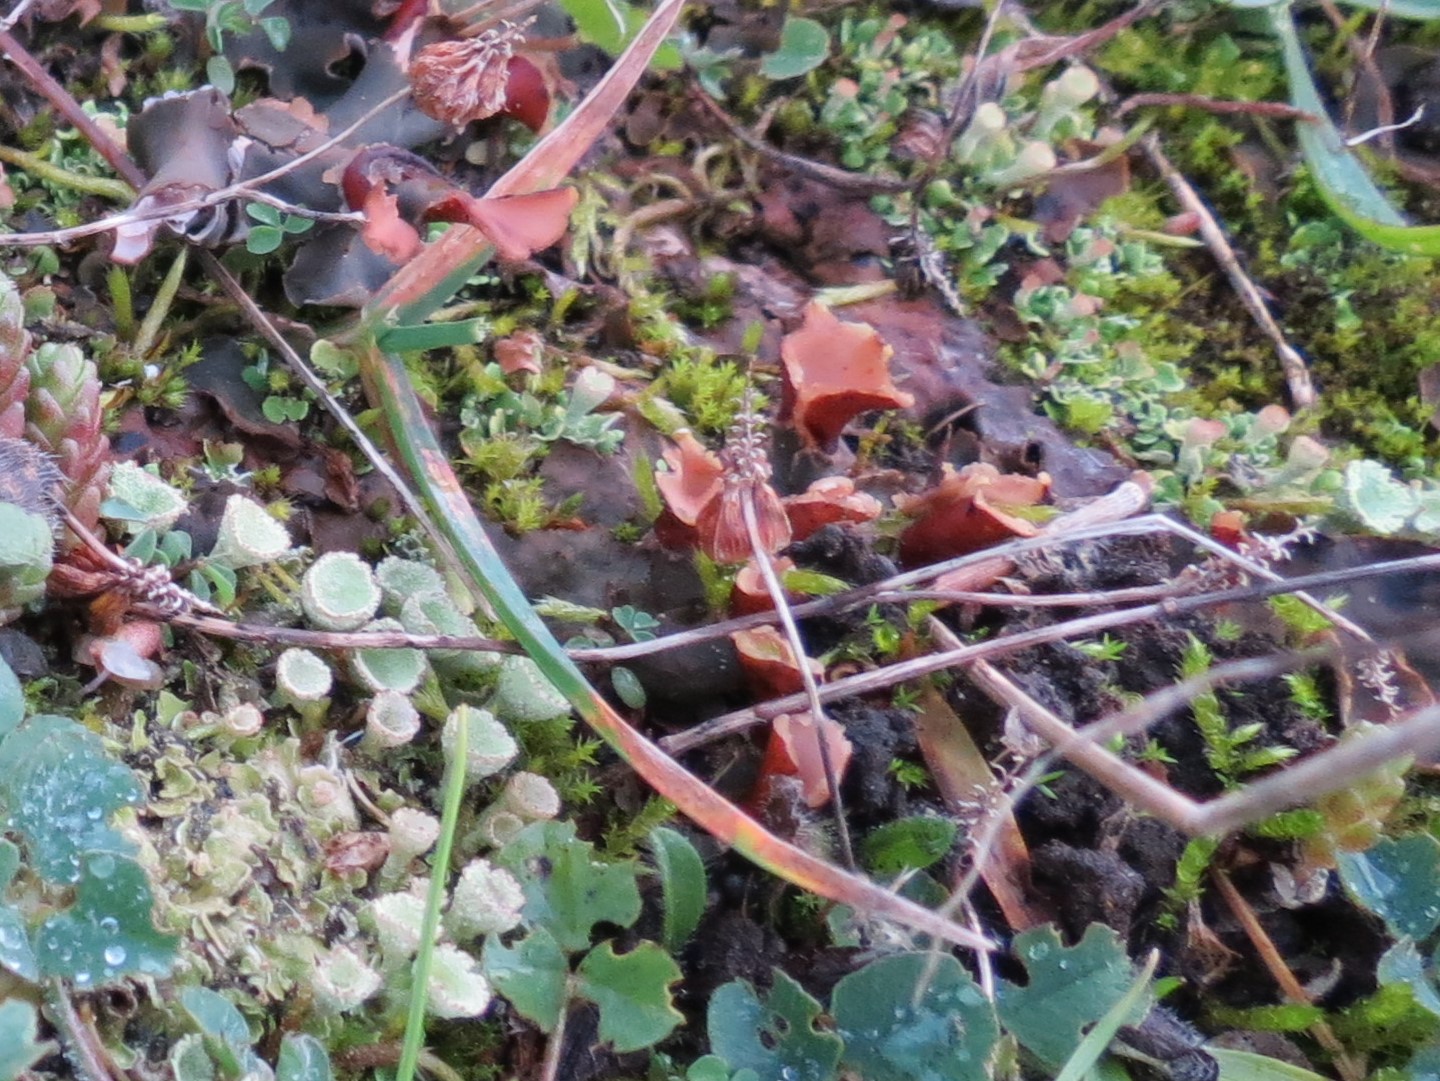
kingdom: Fungi
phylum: Ascomycota
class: Lecanoromycetes
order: Peltigerales
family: Peltigeraceae
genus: Peltigera
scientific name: Peltigera didactyla
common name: liden skjoldlav
